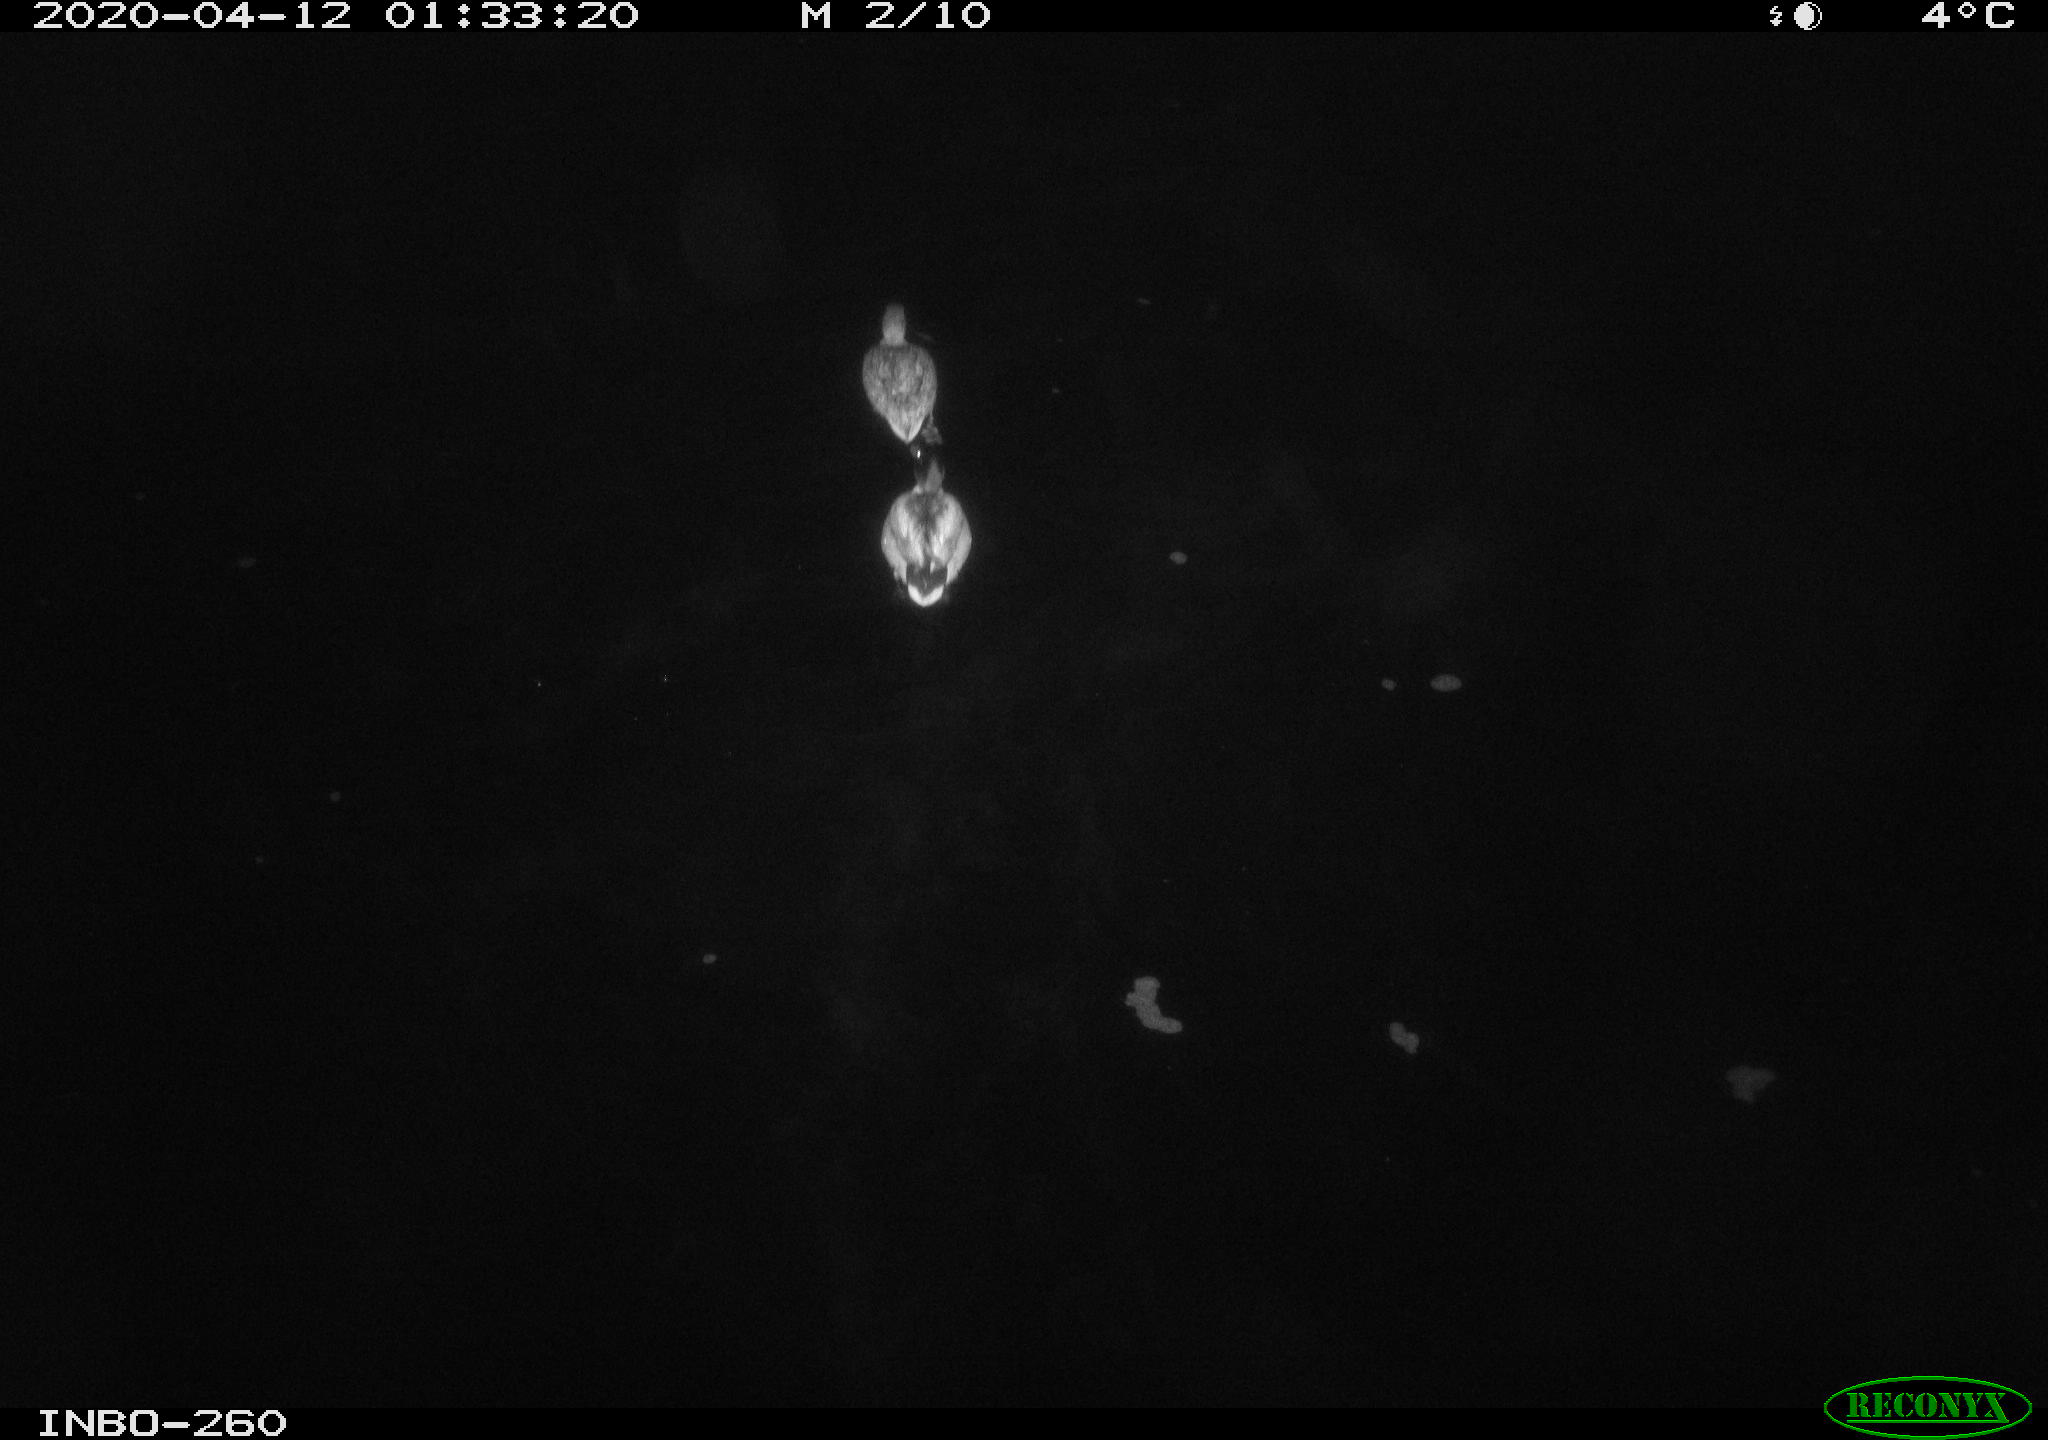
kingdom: Animalia
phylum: Chordata
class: Aves
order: Anseriformes
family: Anatidae
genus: Anas
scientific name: Anas platyrhynchos
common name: Mallard
